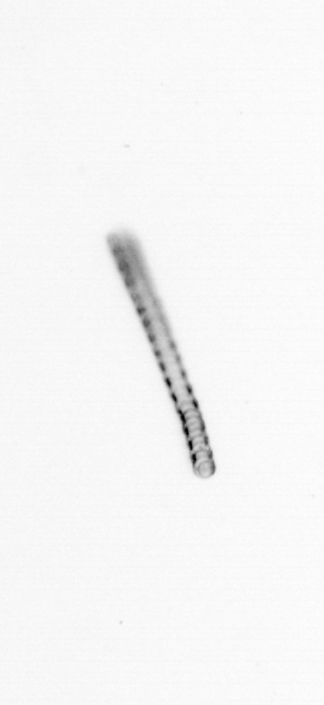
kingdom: Chromista
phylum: Ochrophyta
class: Bacillariophyceae
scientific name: Bacillariophyceae
